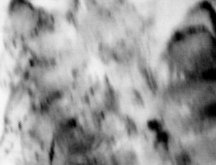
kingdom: Animalia
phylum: Chordata
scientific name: Chordata
